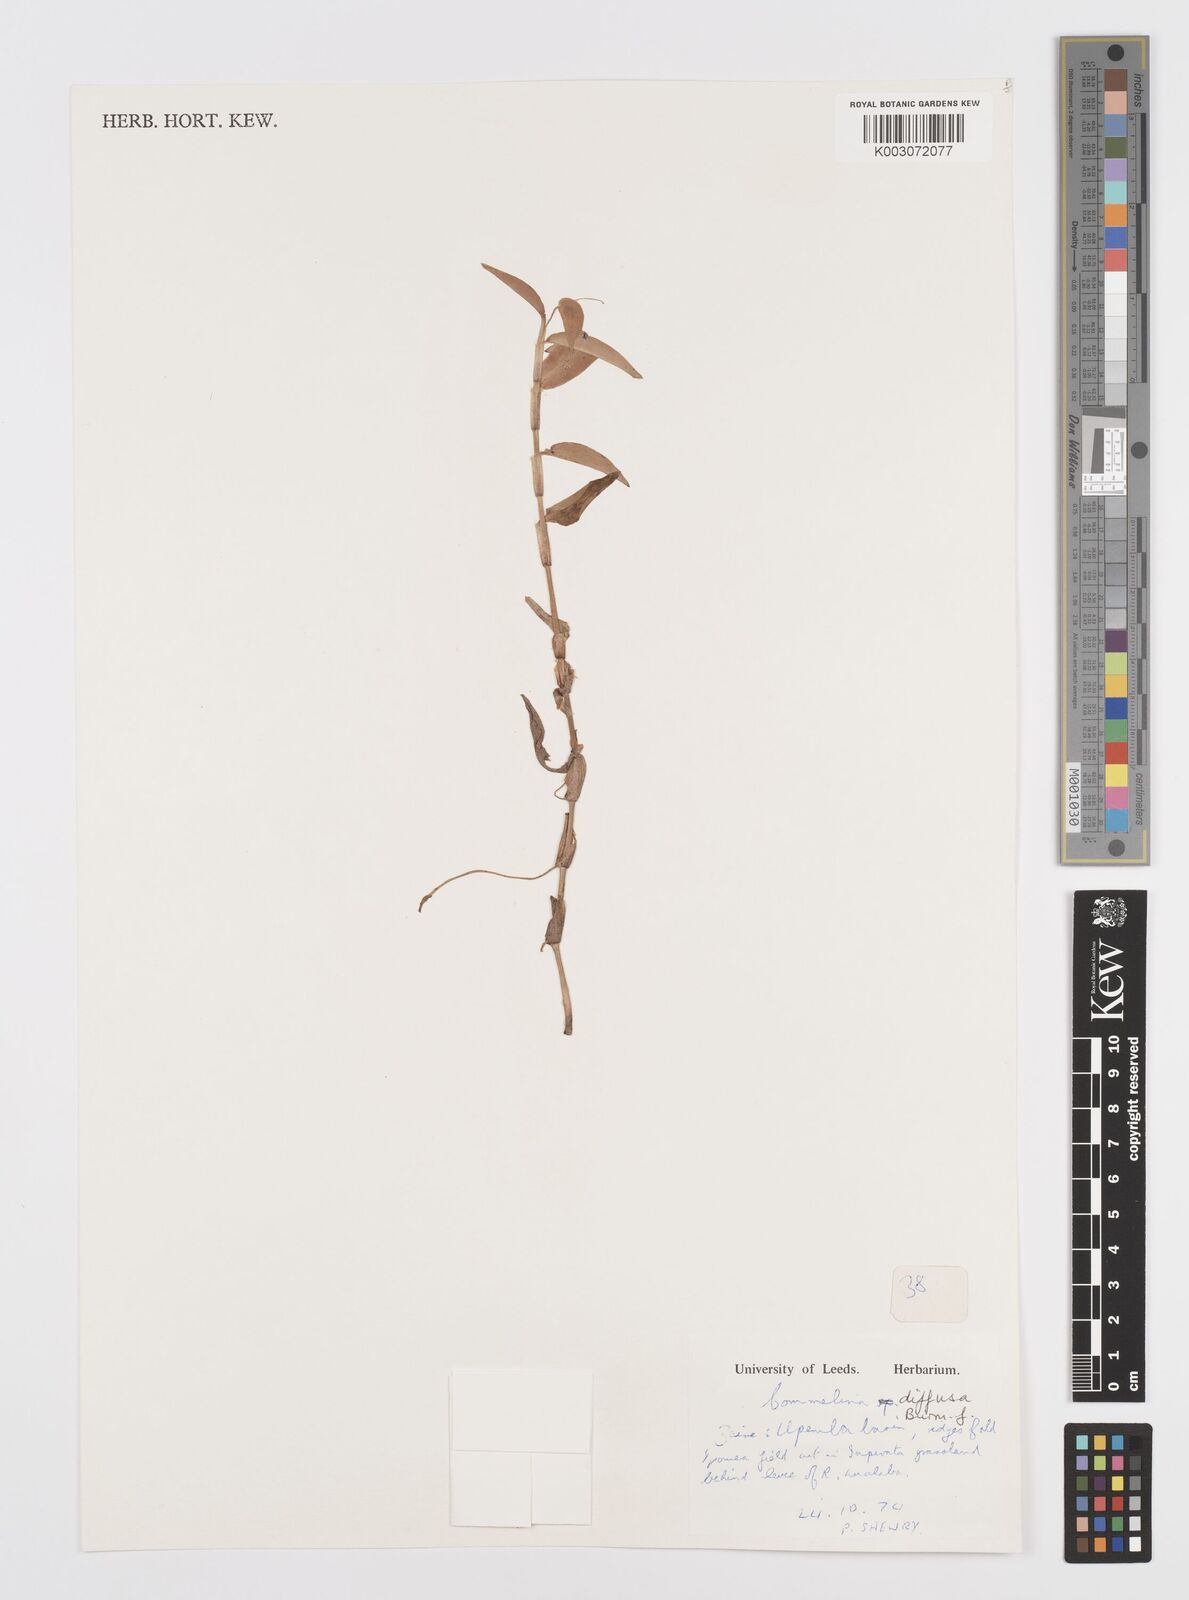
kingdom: Plantae
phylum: Tracheophyta
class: Liliopsida
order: Commelinales
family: Commelinaceae
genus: Commelina
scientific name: Commelina diffusa
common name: Climbing dayflower
